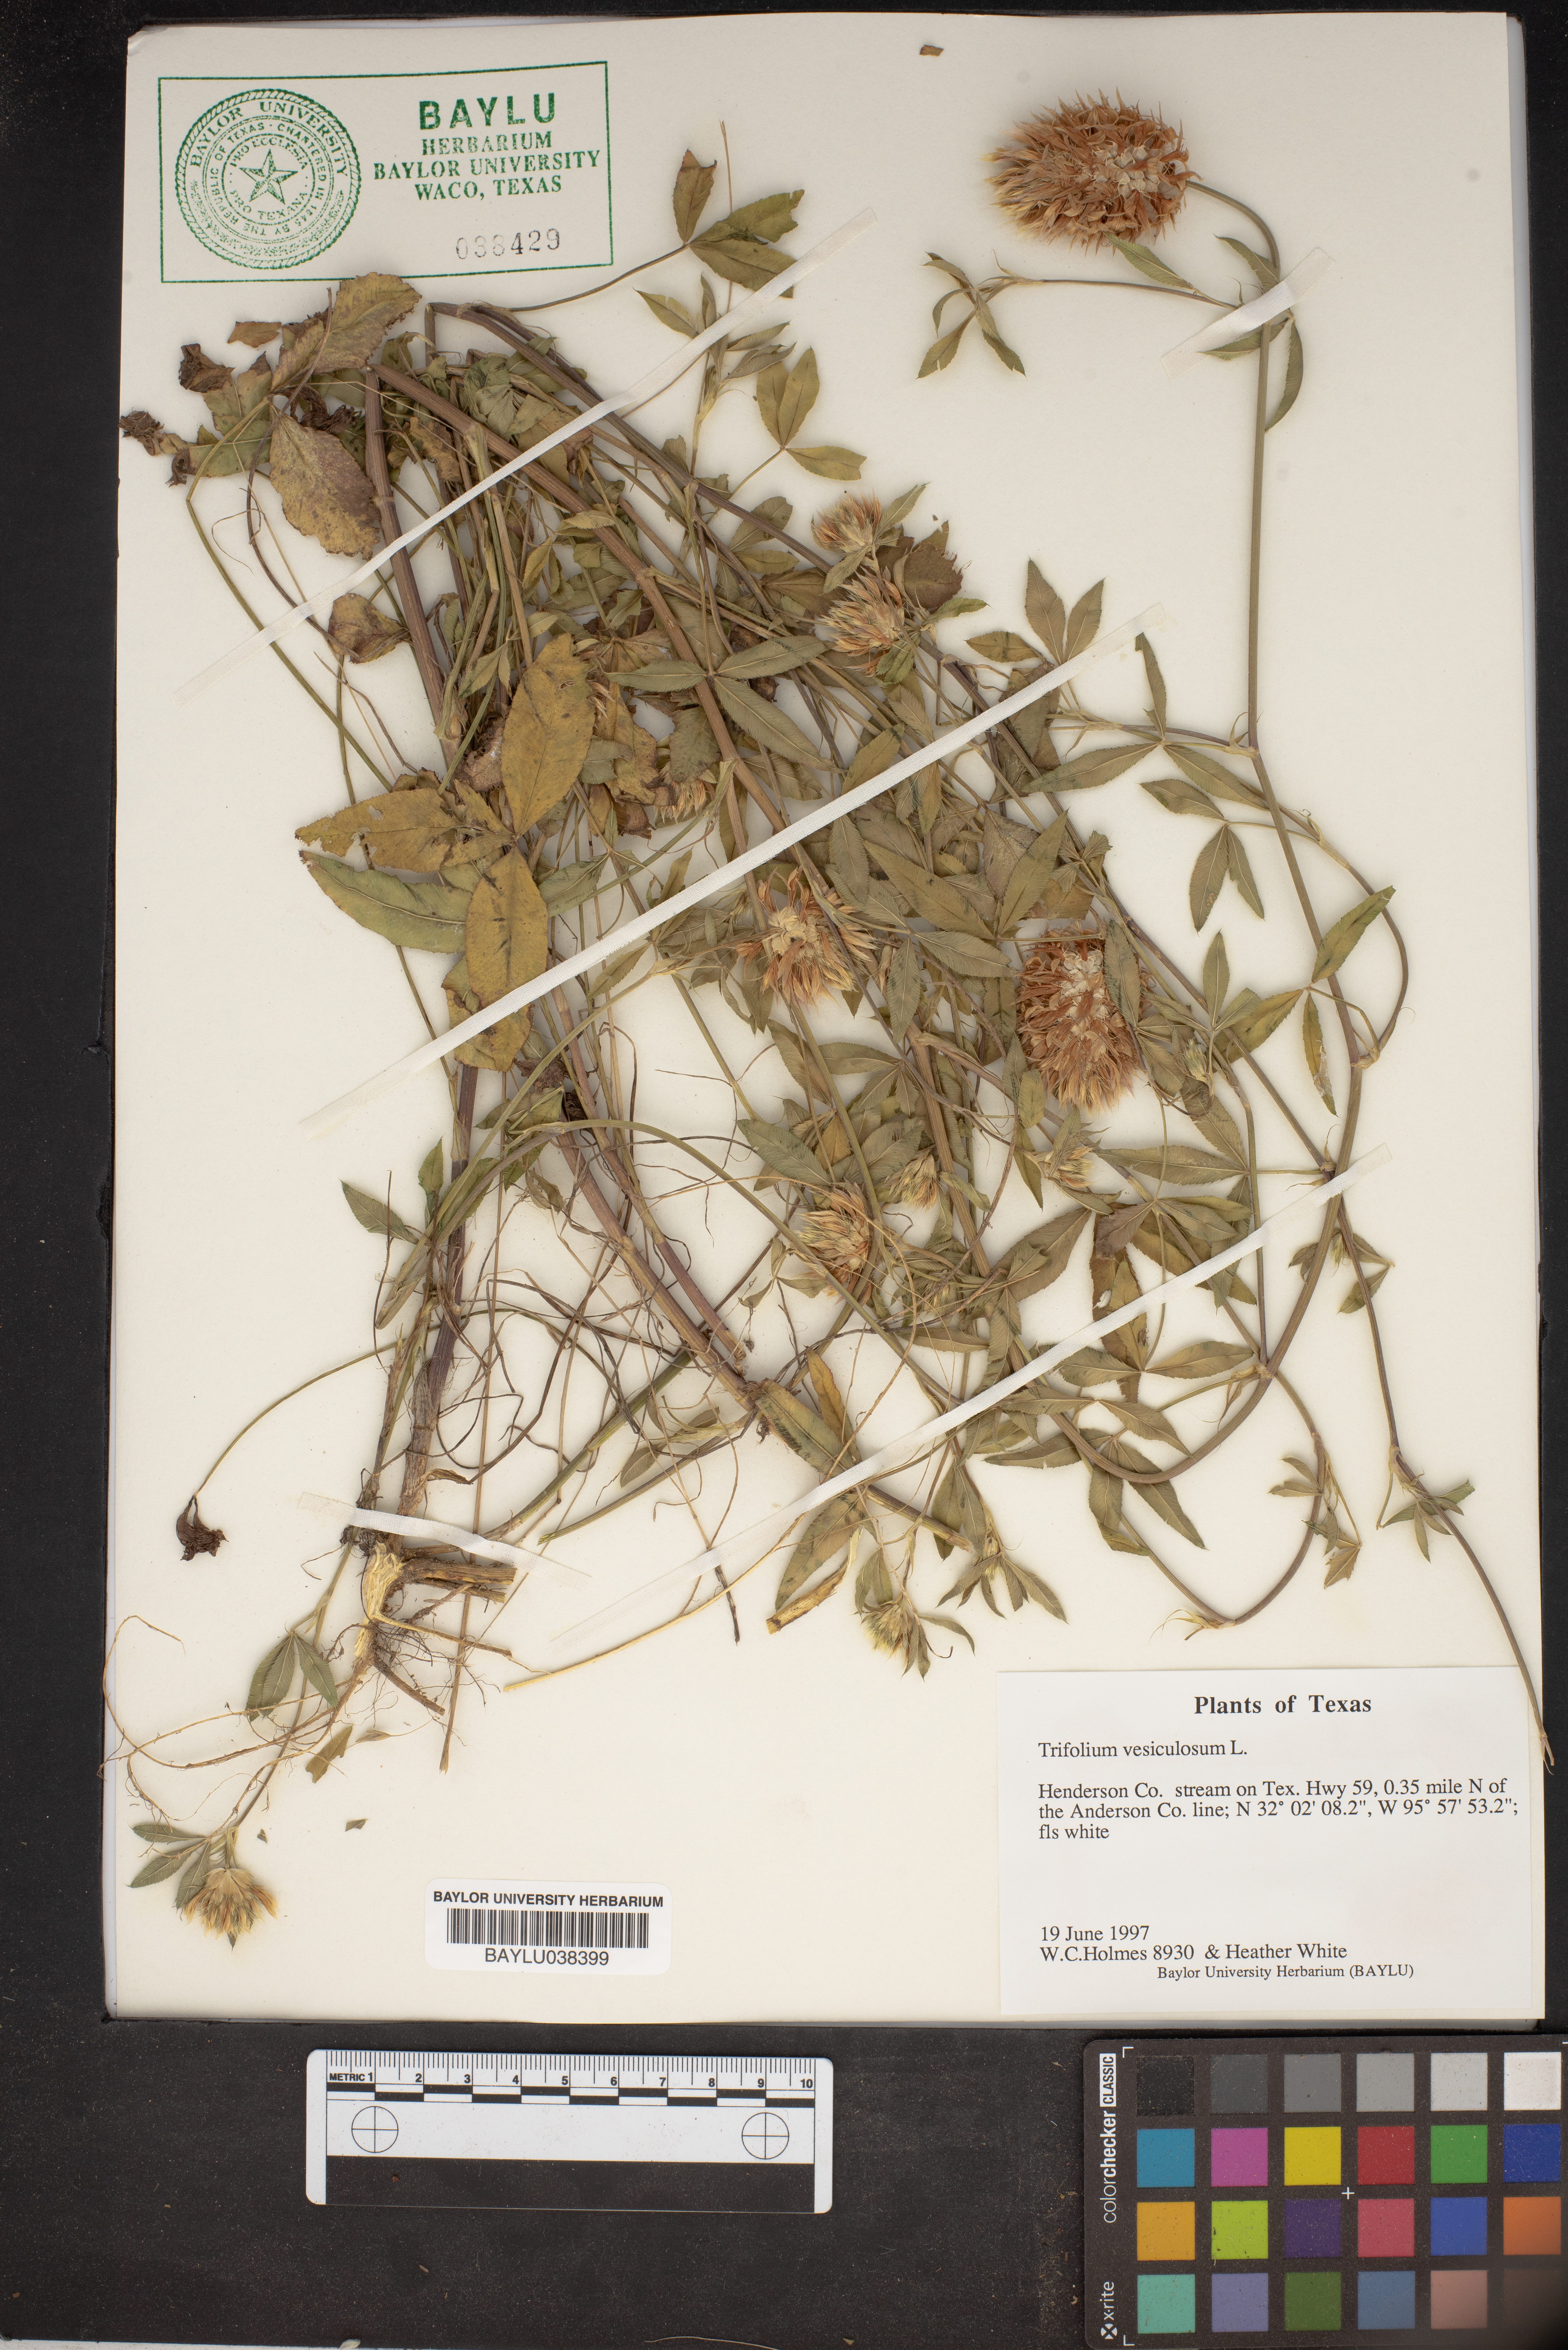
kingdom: Plantae
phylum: Tracheophyta
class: Magnoliopsida
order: Fabales
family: Fabaceae
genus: Trifolium
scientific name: Trifolium vesiculosum
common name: Arrowleaf clover
